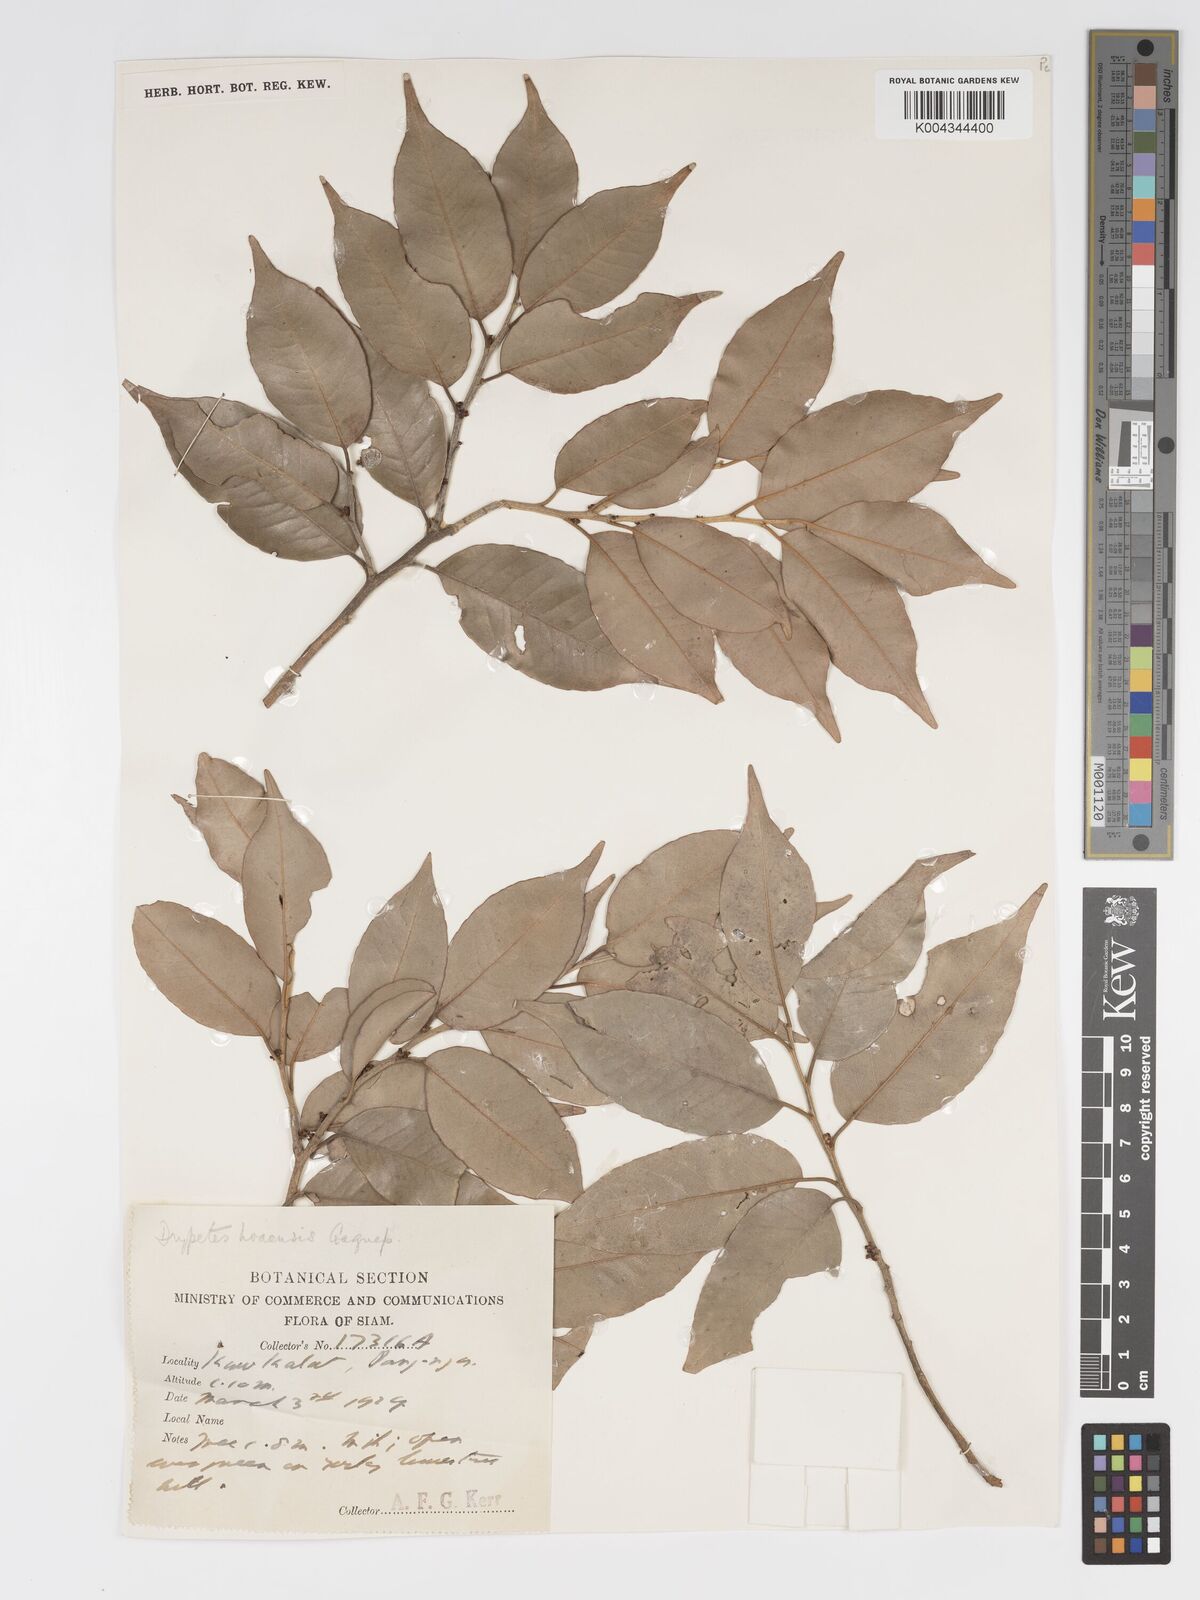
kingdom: Plantae
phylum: Tracheophyta
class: Magnoliopsida
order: Malpighiales
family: Putranjivaceae
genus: Drypetes
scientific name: Drypetes hoaensis
